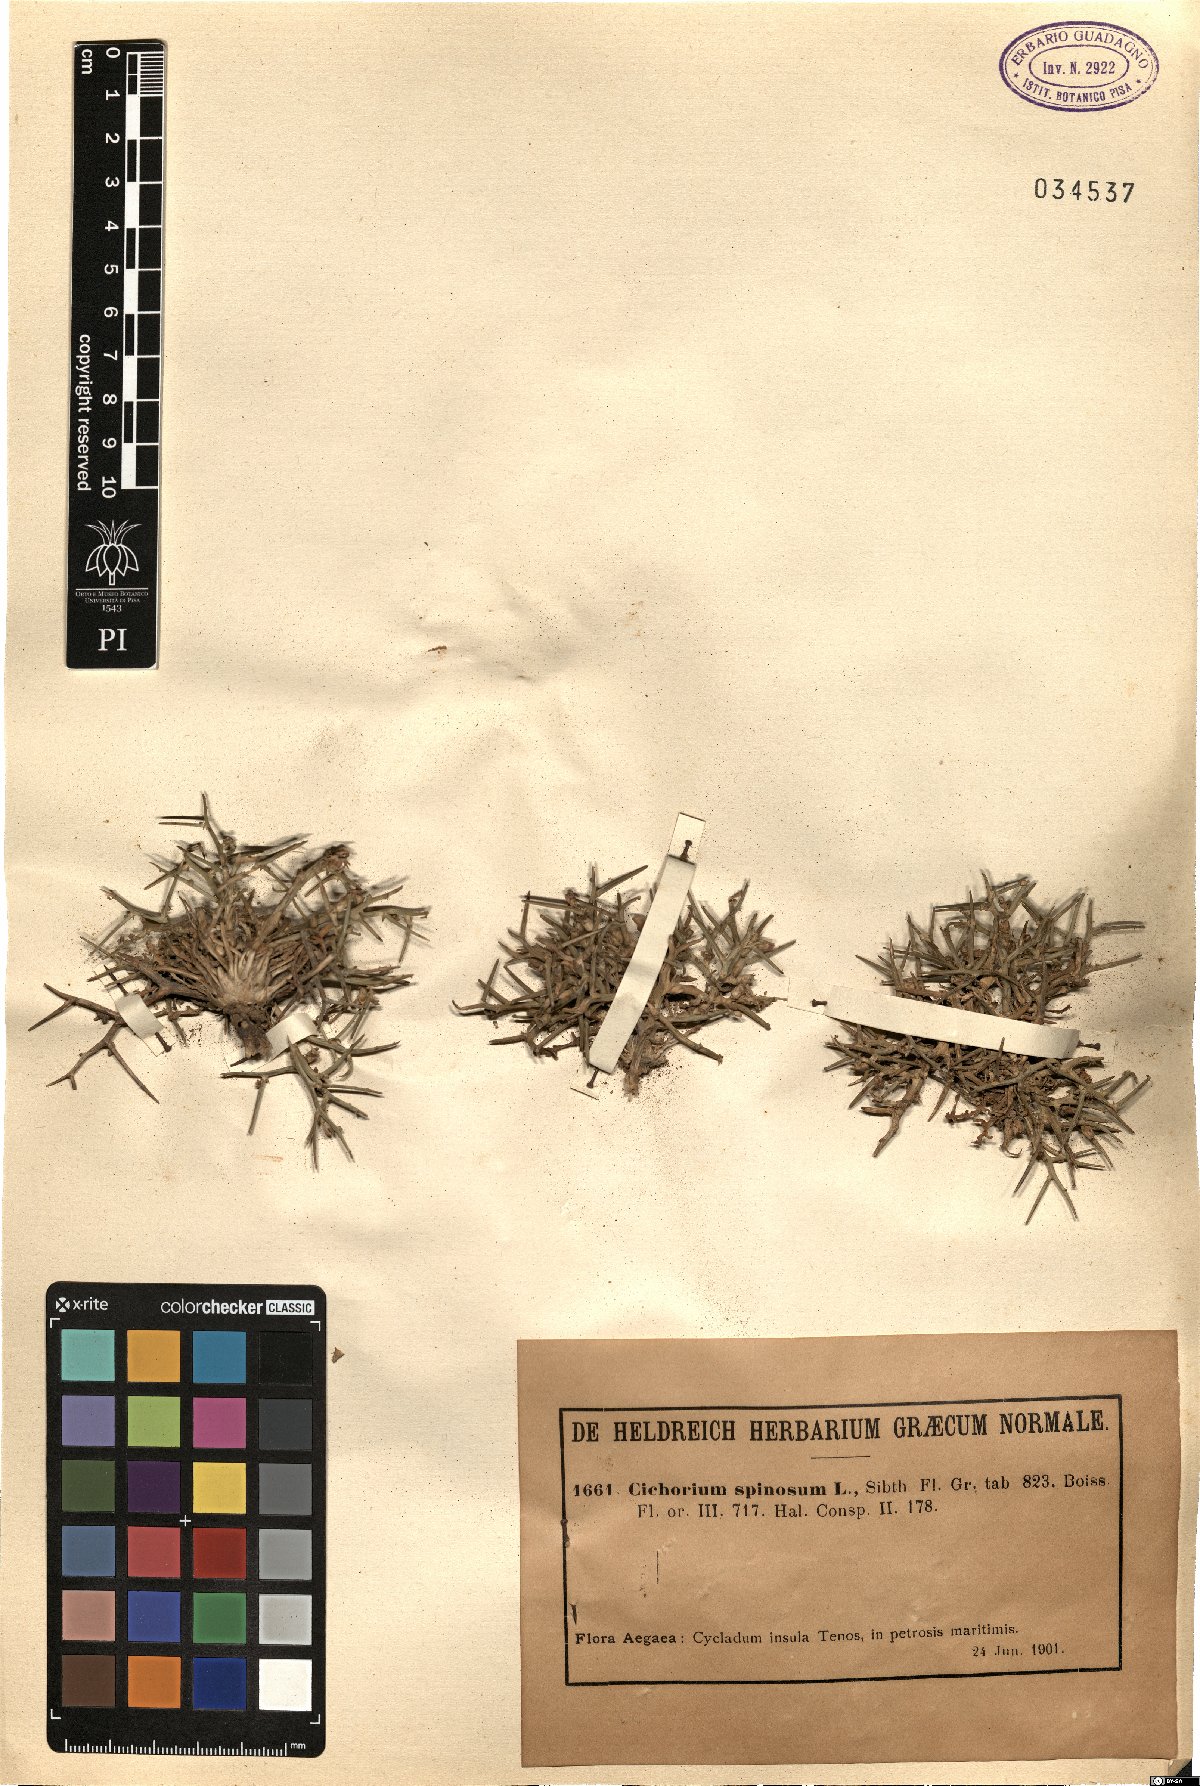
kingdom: Plantae
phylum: Tracheophyta
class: Magnoliopsida
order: Asterales
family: Asteraceae
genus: Cichorium
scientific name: Cichorium spinosum
